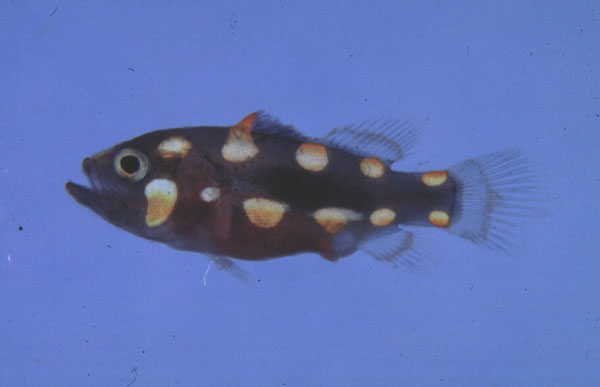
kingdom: Animalia
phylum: Chordata
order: Perciformes
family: Serranidae
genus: Grammistes
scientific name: Grammistes sexlineatus
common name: Sixline soapfish
